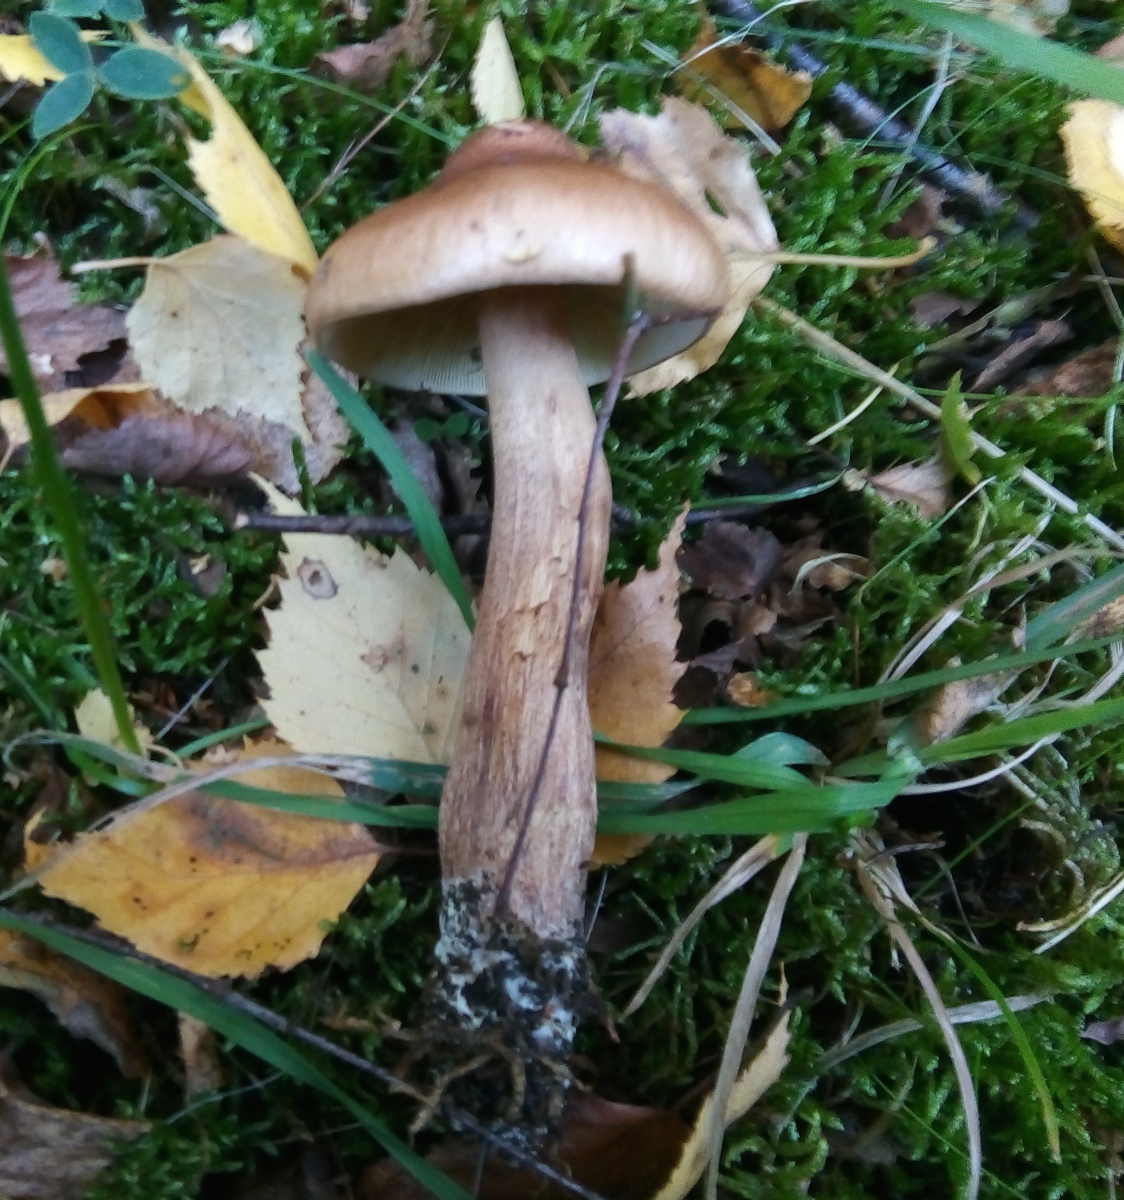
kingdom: Fungi
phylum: Basidiomycota
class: Agaricomycetes
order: Agaricales
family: Tricholomataceae
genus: Tricholoma
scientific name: Tricholoma fulvum
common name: birke-ridderhat
